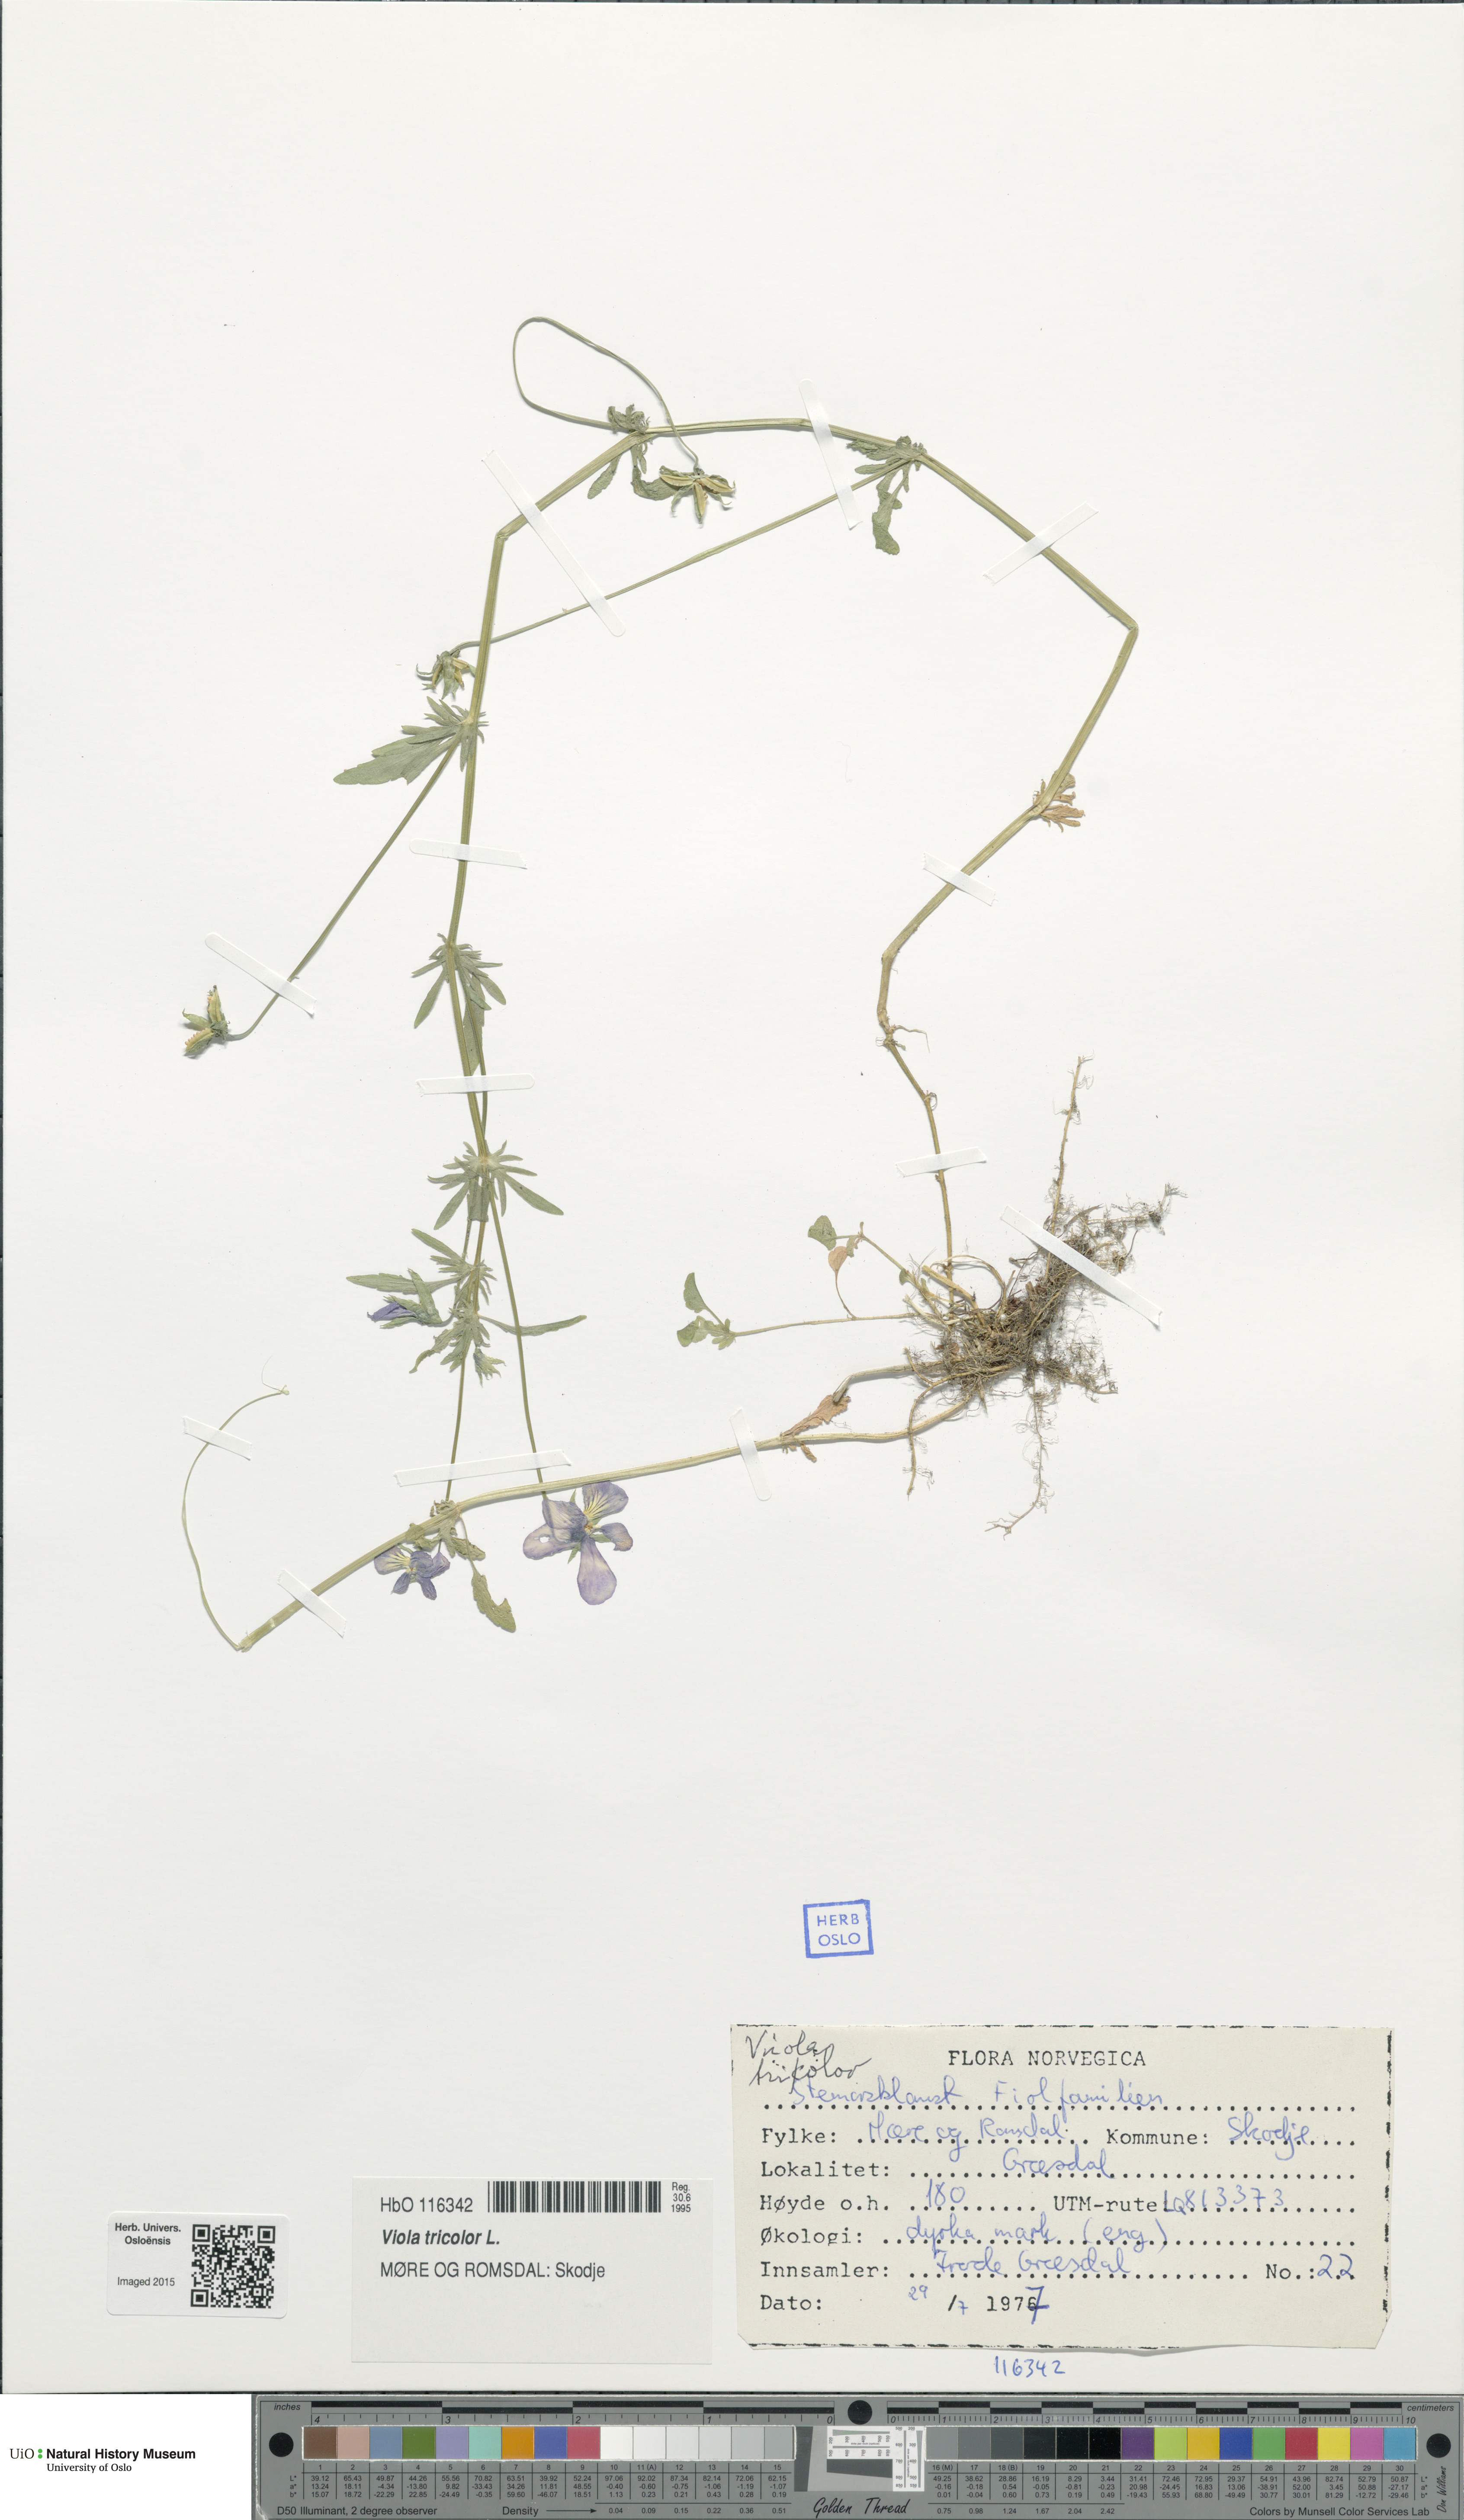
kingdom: Plantae
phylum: Tracheophyta
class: Magnoliopsida
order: Malpighiales
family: Violaceae
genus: Viola
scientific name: Viola tricolor
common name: Pansy
